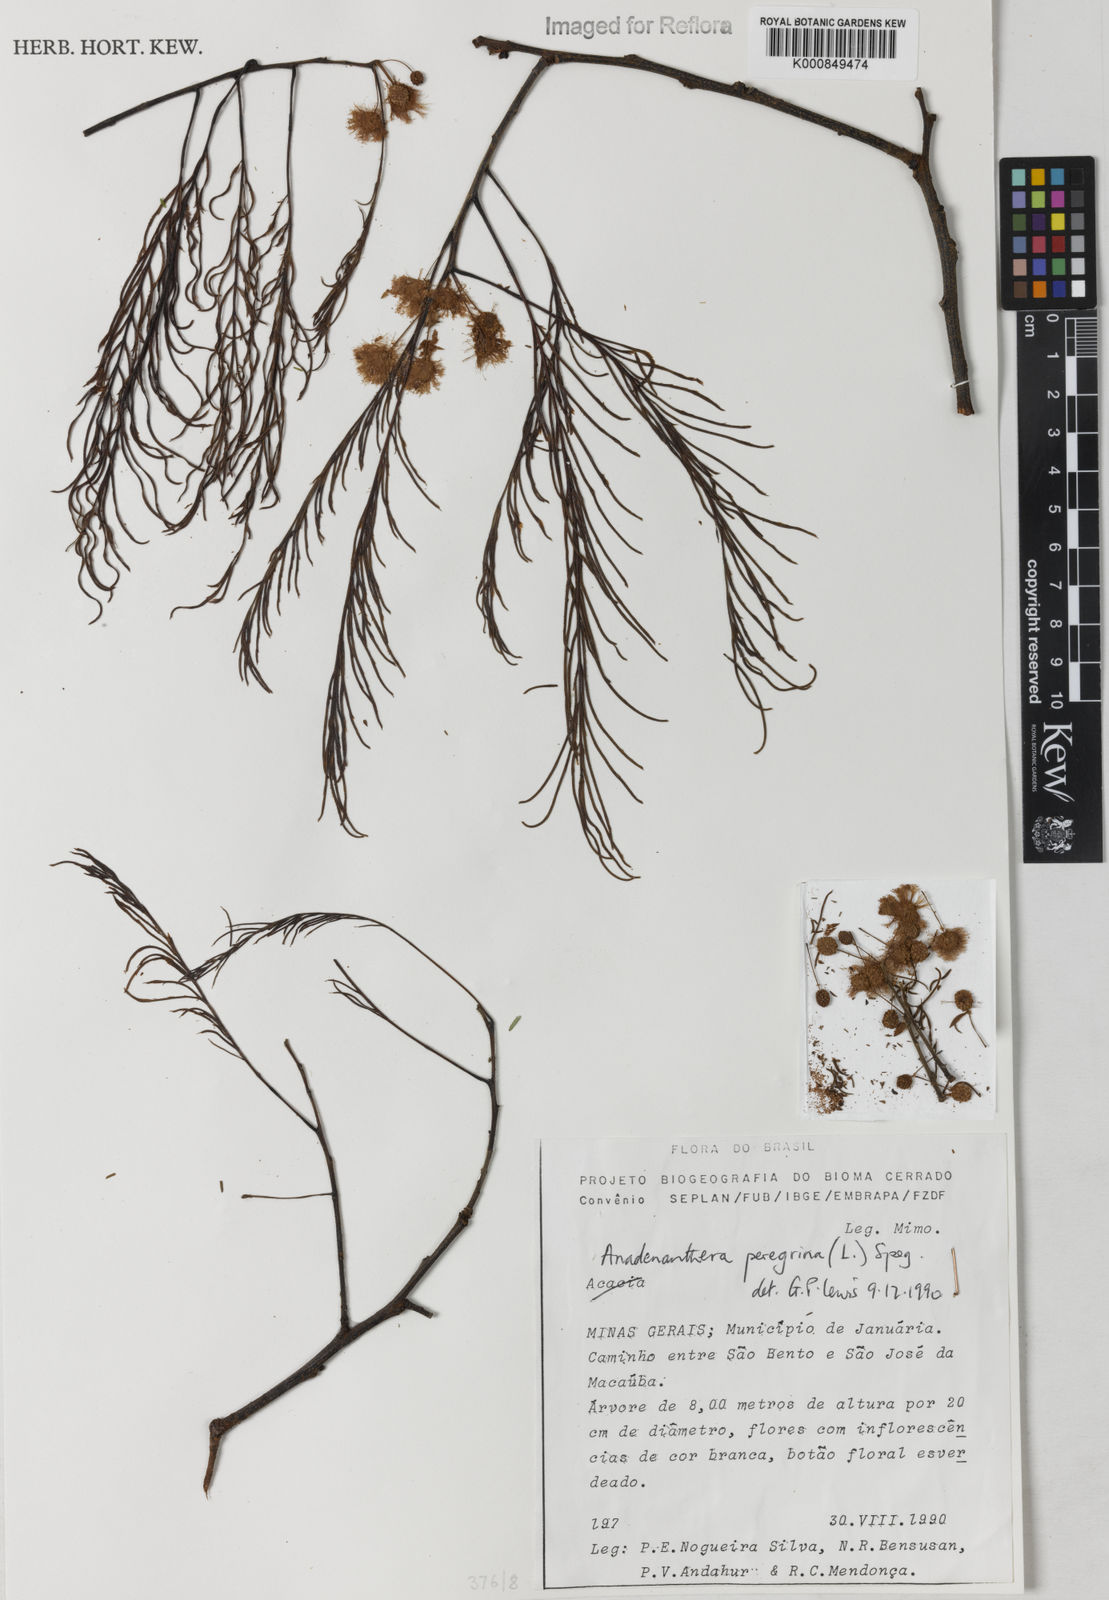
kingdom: Plantae
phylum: Tracheophyta
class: Magnoliopsida
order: Fabales
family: Fabaceae
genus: Anadenanthera
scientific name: Anadenanthera peregrina
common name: Cohoba
